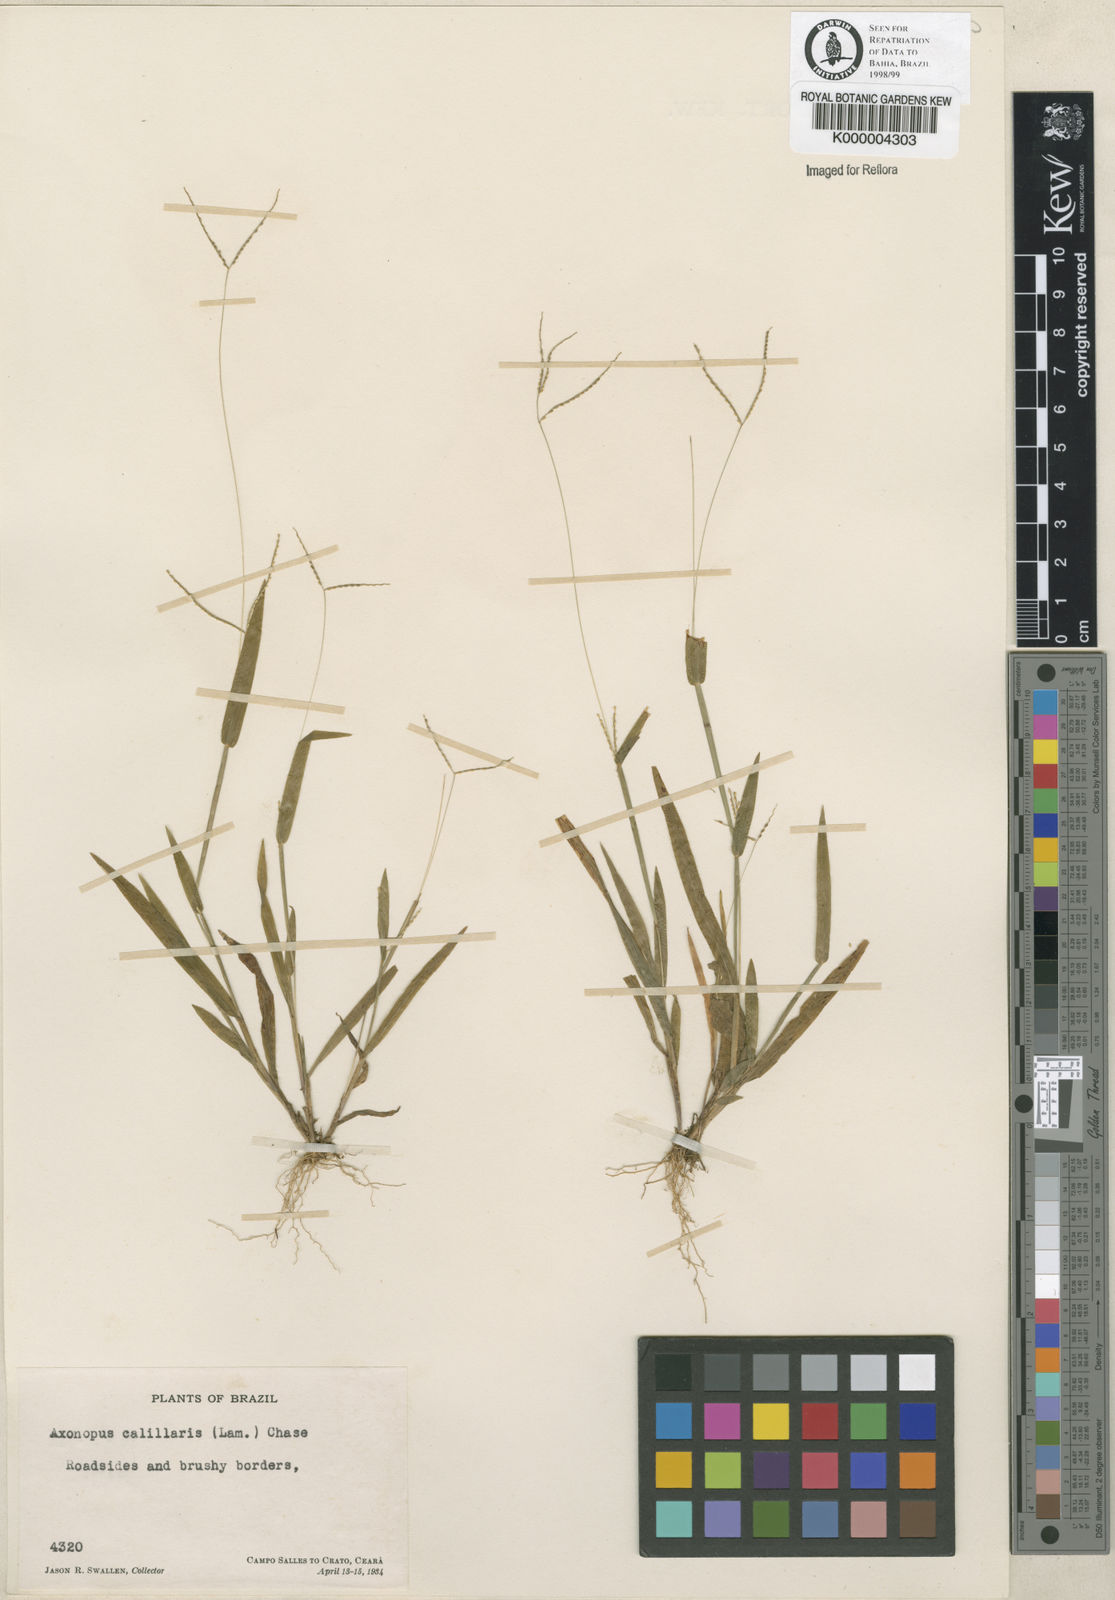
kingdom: Plantae
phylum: Tracheophyta
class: Liliopsida
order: Poales
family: Poaceae
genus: Axonopus
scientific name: Axonopus capillaris
